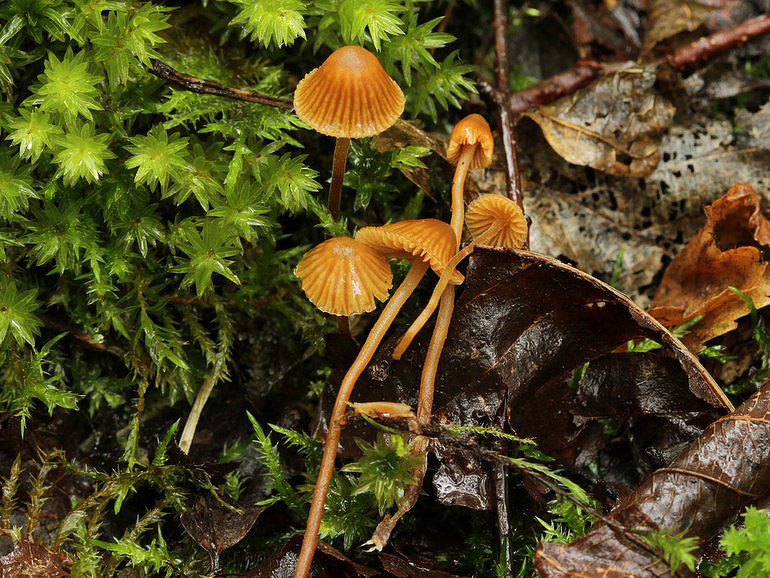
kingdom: Fungi
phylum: Basidiomycota
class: Agaricomycetes
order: Agaricales
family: Hymenogastraceae
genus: Galerina
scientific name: Galerina vittiformis
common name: Hairy leg bell
